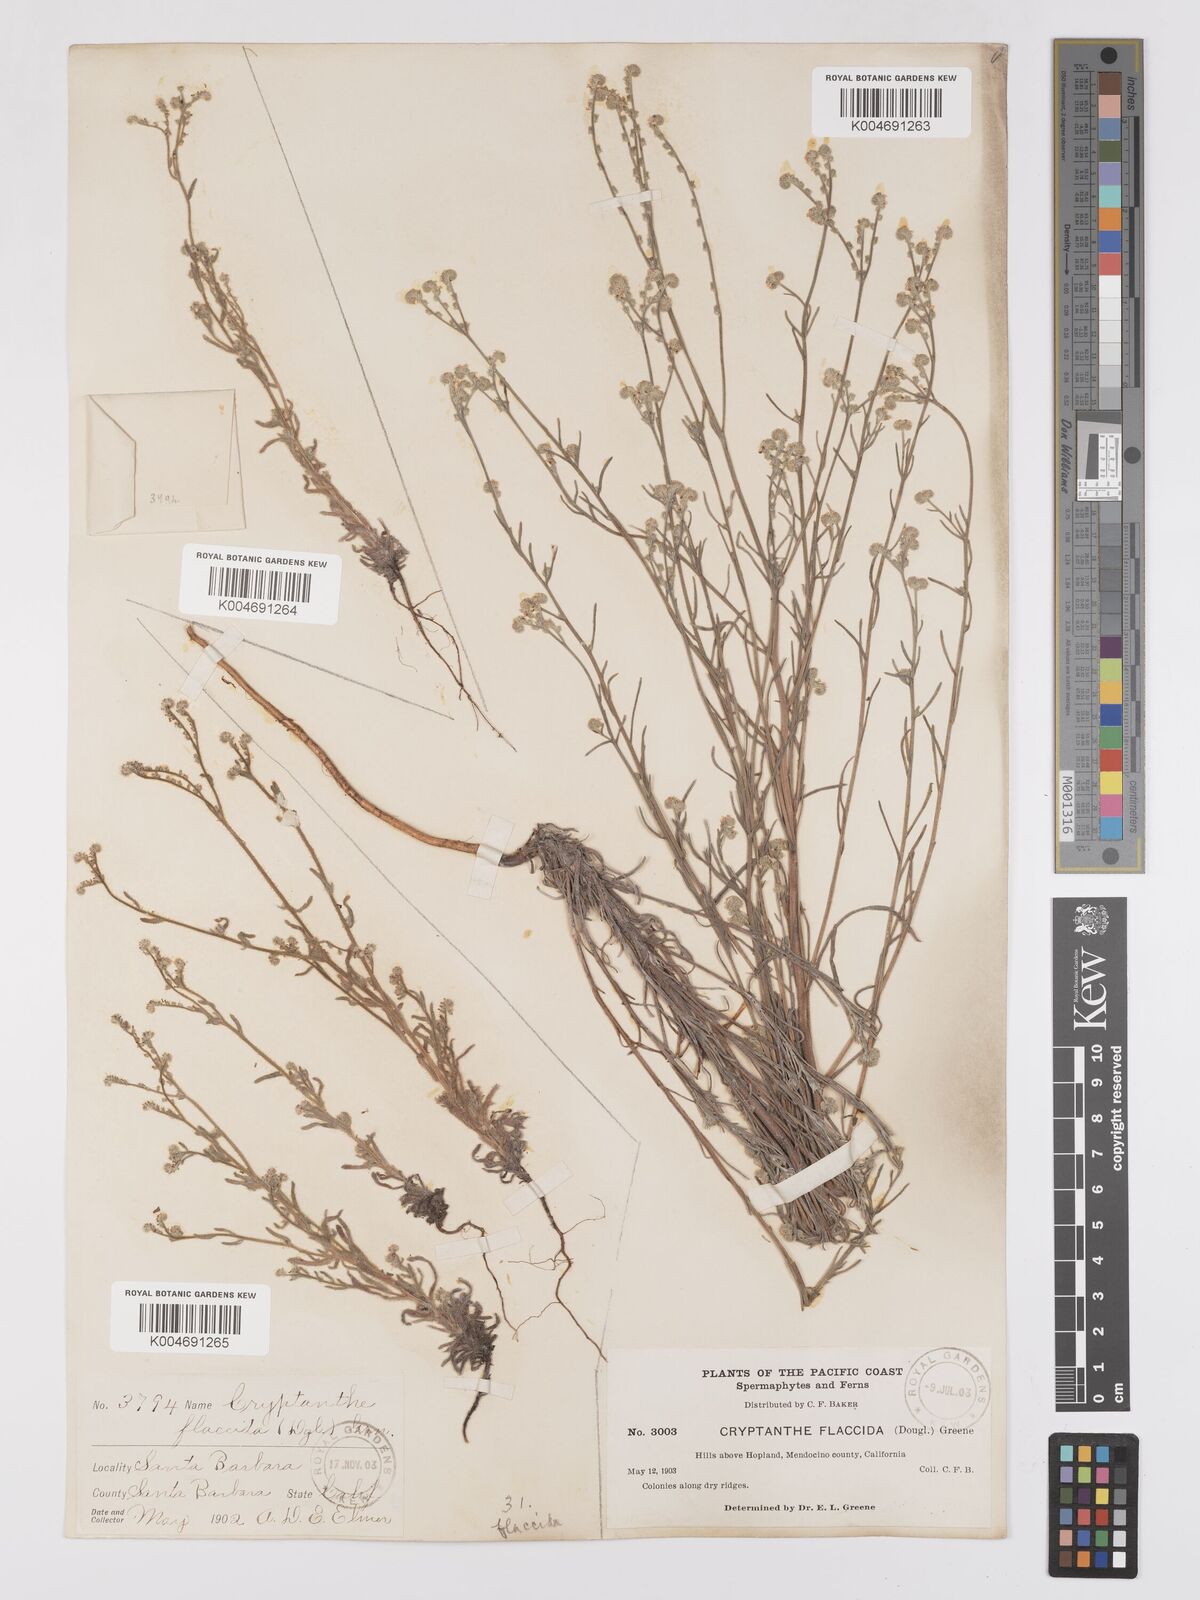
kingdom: Plantae
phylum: Tracheophyta
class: Magnoliopsida
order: Boraginales
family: Boraginaceae
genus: Cryptantha
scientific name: Cryptantha flaccida
